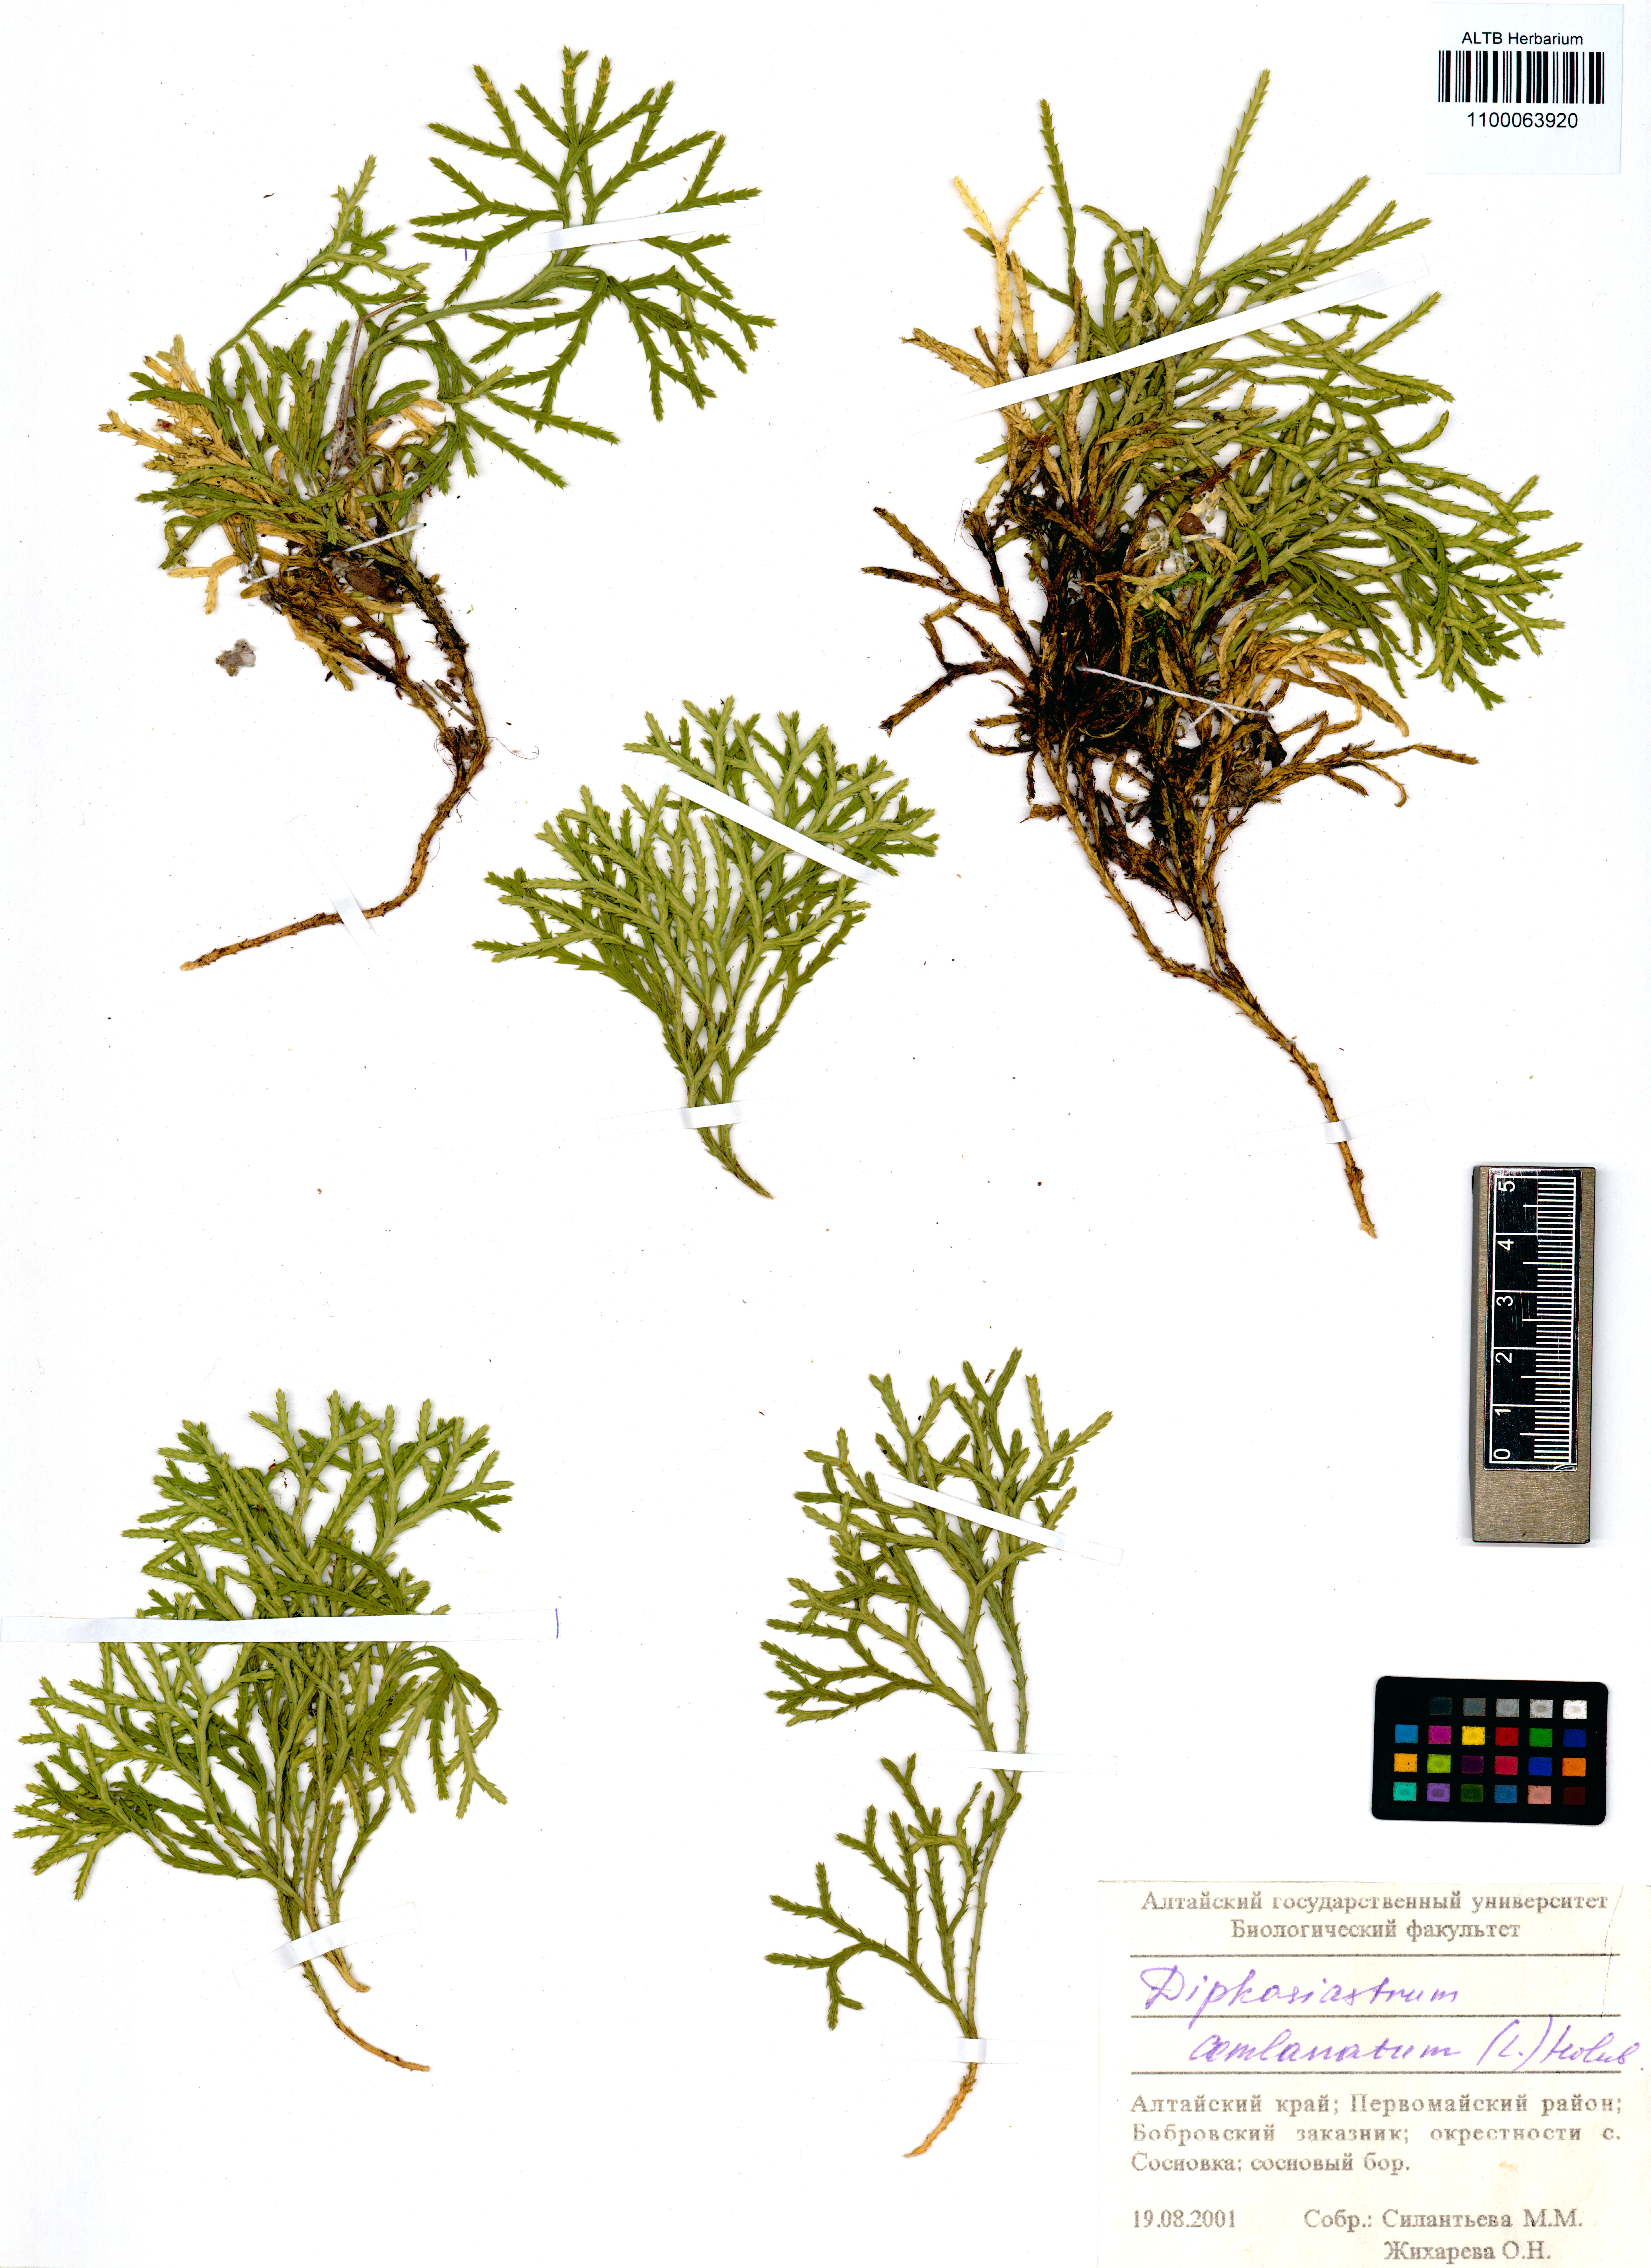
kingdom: Plantae
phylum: Tracheophyta
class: Lycopodiopsida
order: Lycopodiales
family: Lycopodiaceae
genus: Diphasiastrum
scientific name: Diphasiastrum complanatum
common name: Northern running-pine
